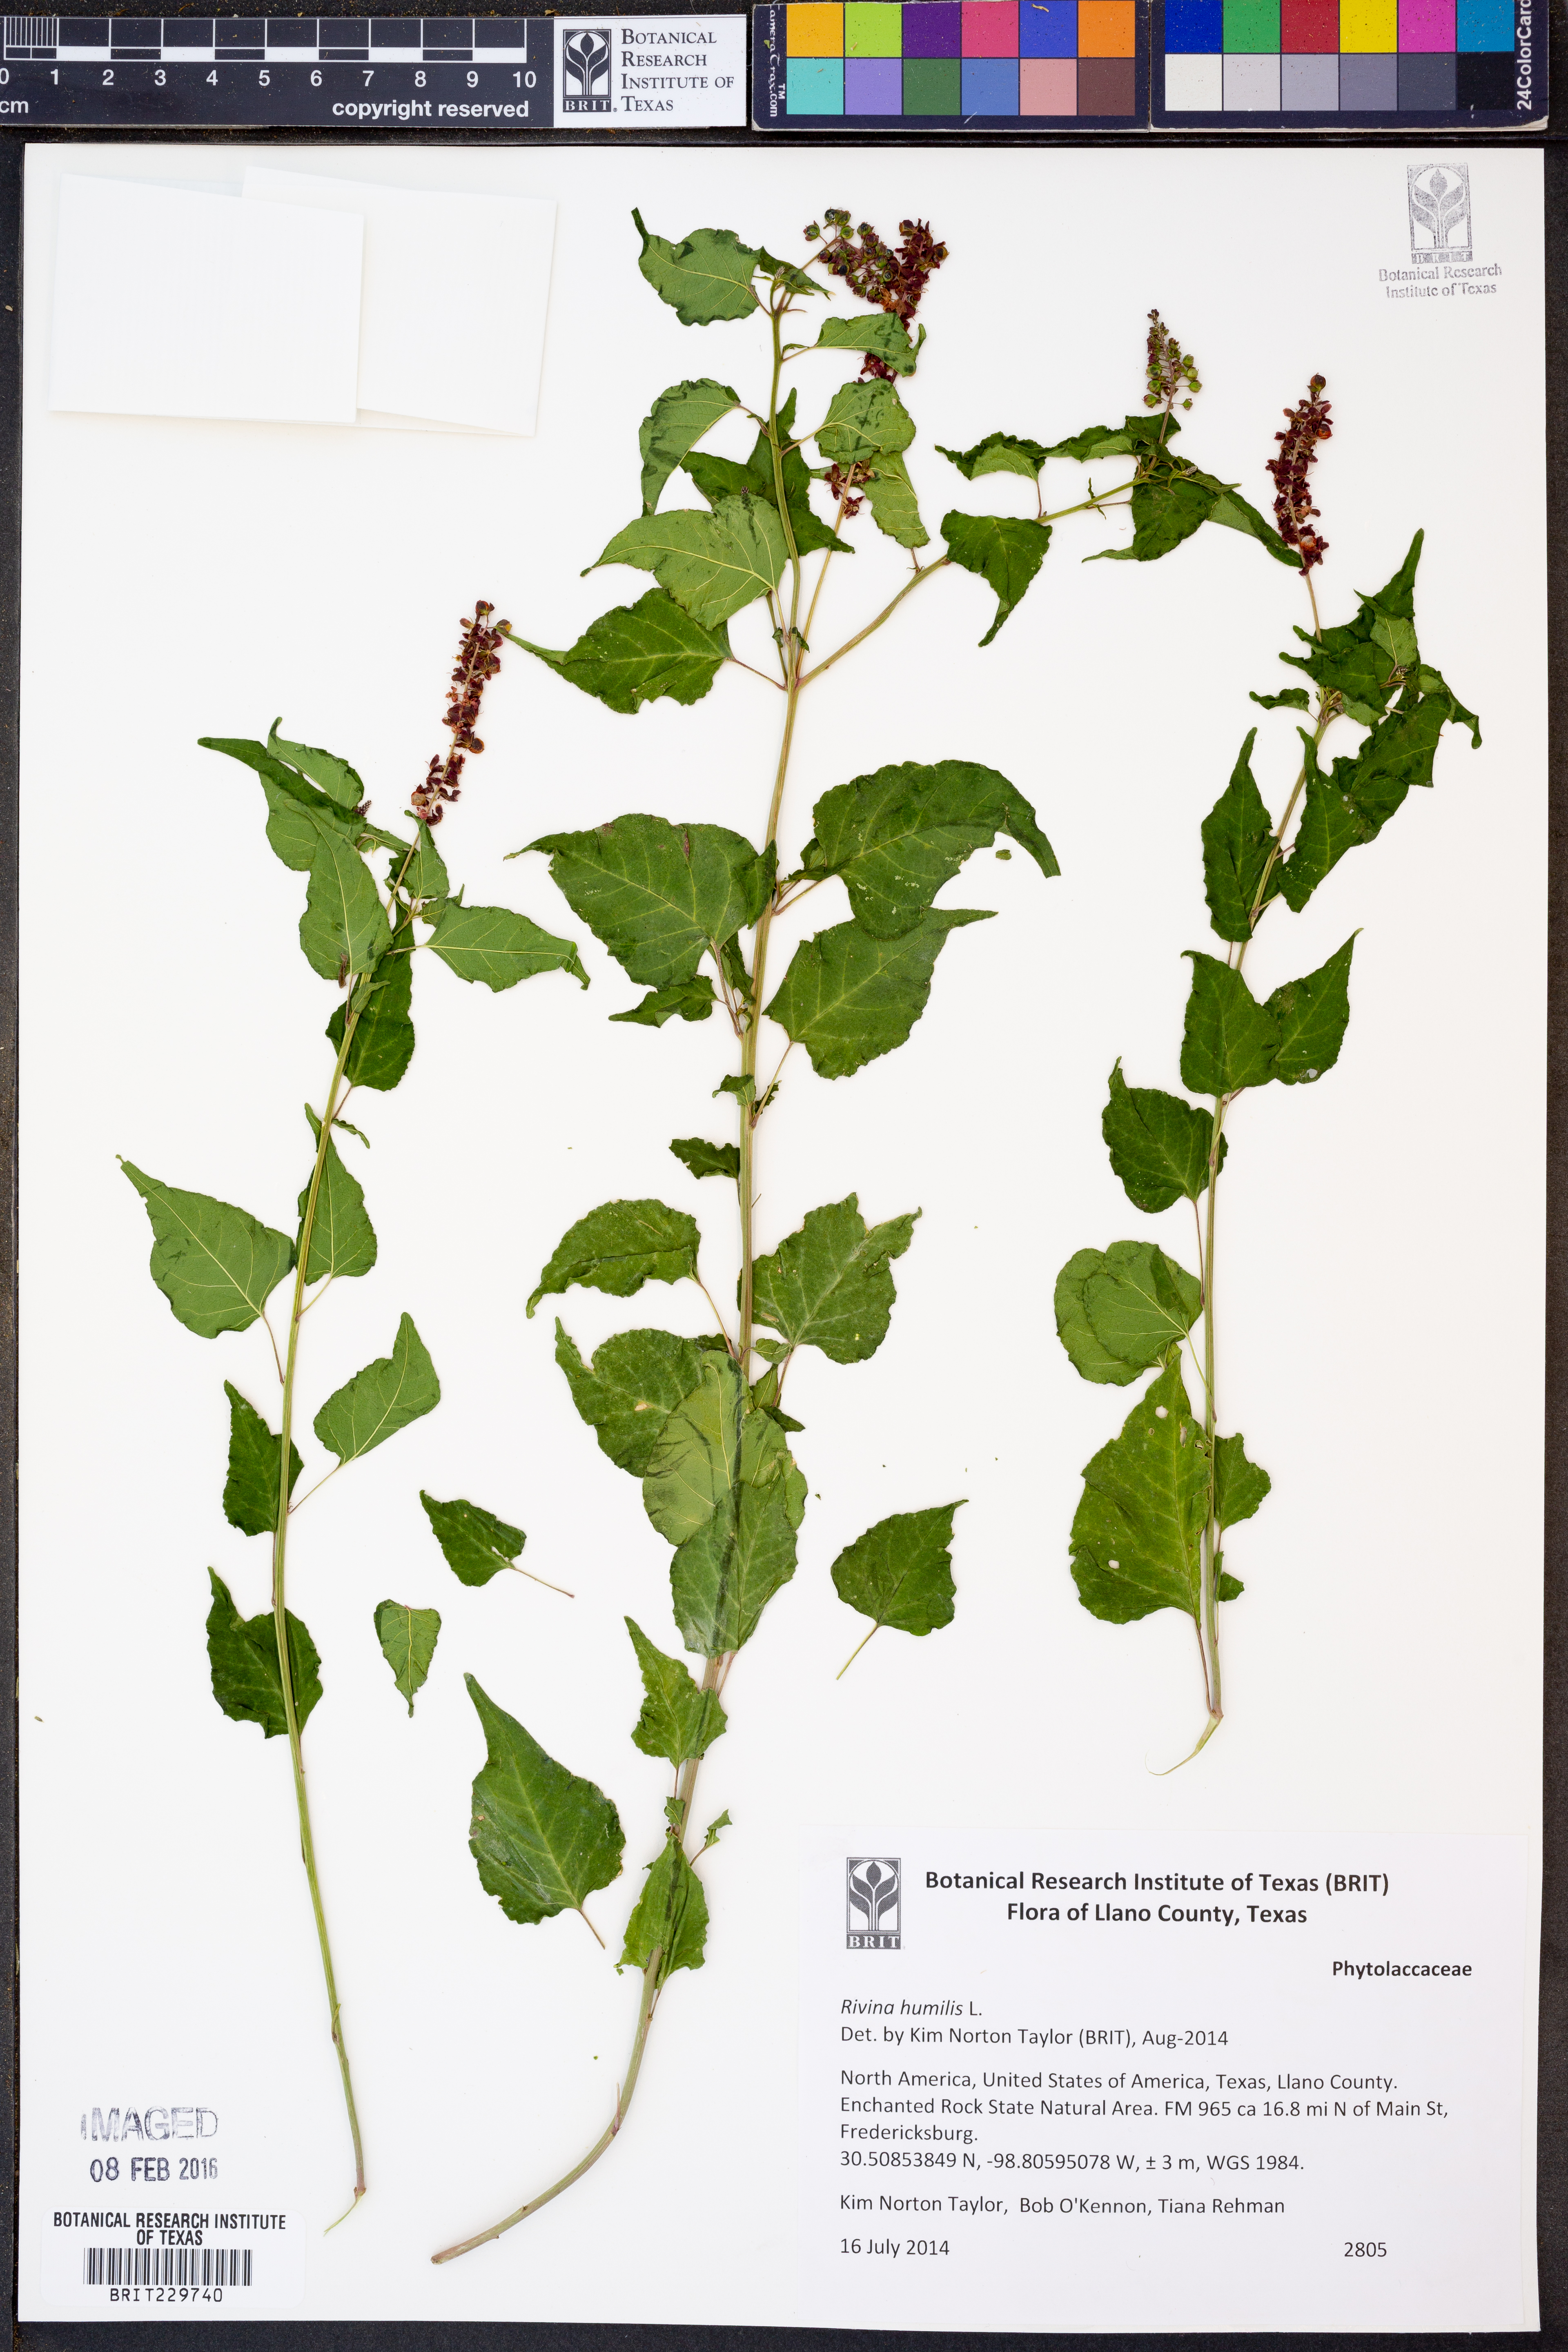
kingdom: Plantae
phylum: Tracheophyta
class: Magnoliopsida
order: Caryophyllales
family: Phytolaccaceae
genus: Rivina
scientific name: Rivina humilis
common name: Rougeplant
